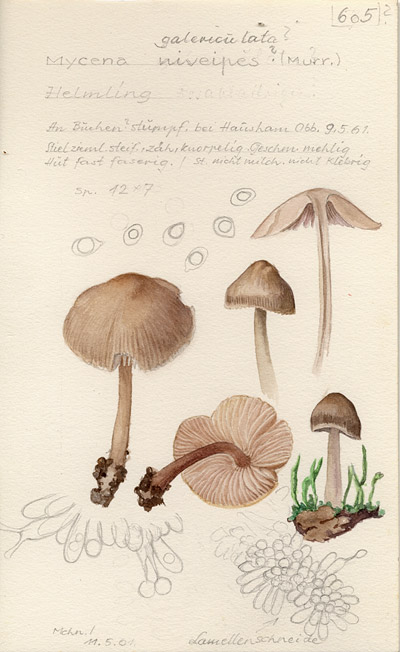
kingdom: Fungi
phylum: Basidiomycota
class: Agaricomycetes
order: Agaricales
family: Mycenaceae
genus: Mycena
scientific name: Mycena galericulata
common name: Bonnet mycena
